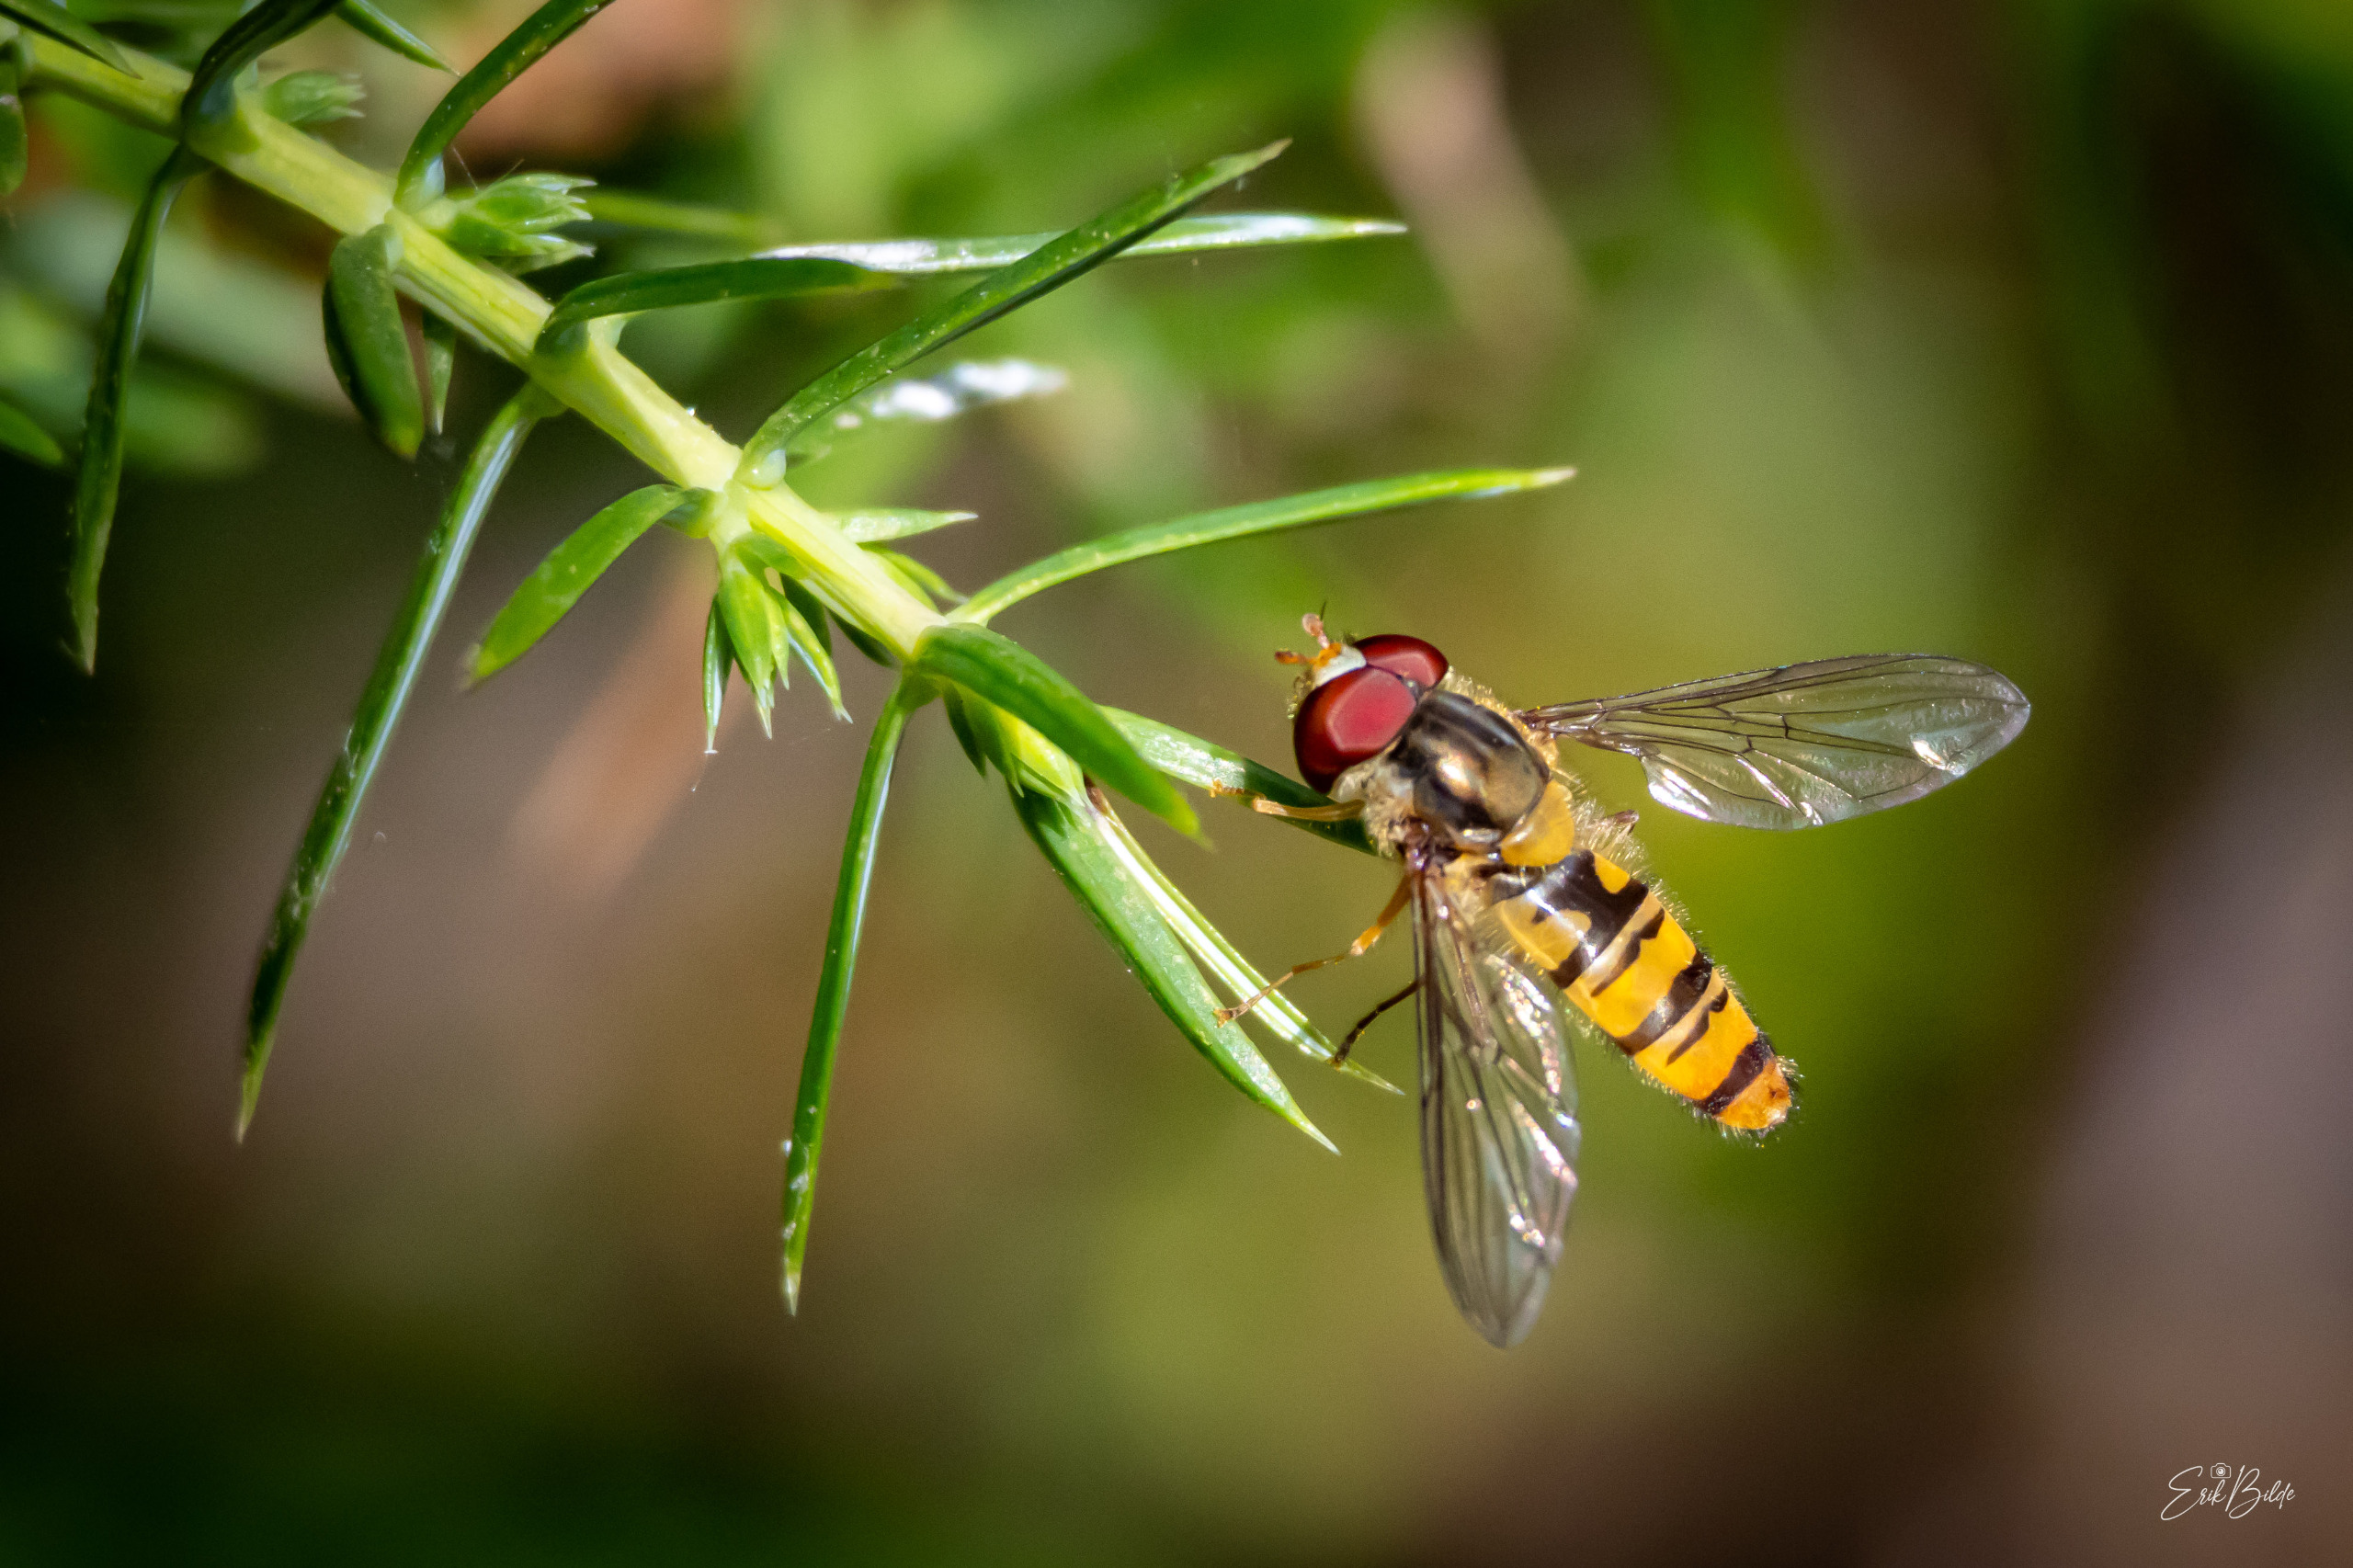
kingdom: Animalia
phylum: Arthropoda
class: Insecta
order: Diptera
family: Syrphidae
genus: Episyrphus
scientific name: Episyrphus balteatus
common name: Dobbeltbåndet svirreflue
